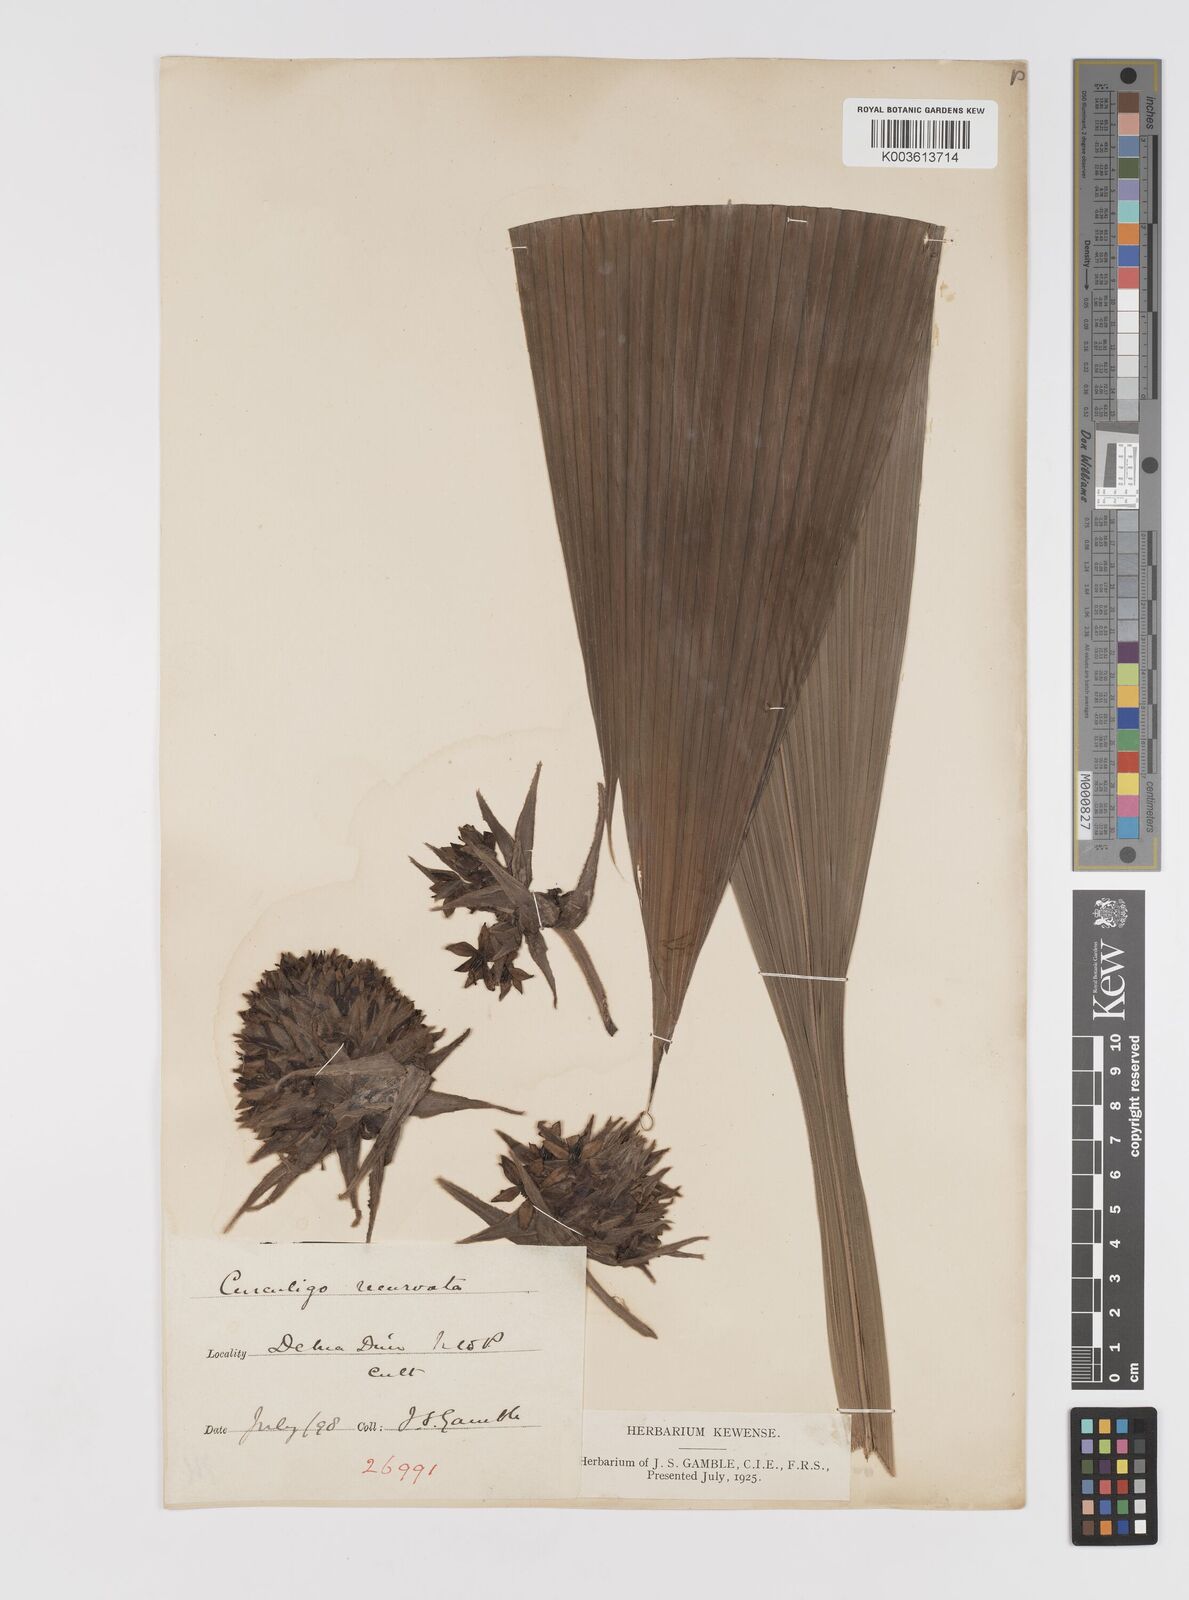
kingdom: Plantae
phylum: Tracheophyta
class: Liliopsida
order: Asparagales
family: Hypoxidaceae
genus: Curculigo
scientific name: Curculigo capitulata
